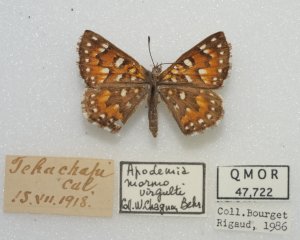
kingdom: Animalia
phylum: Arthropoda
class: Insecta
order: Lepidoptera
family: Riodinidae
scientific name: Riodinidae
